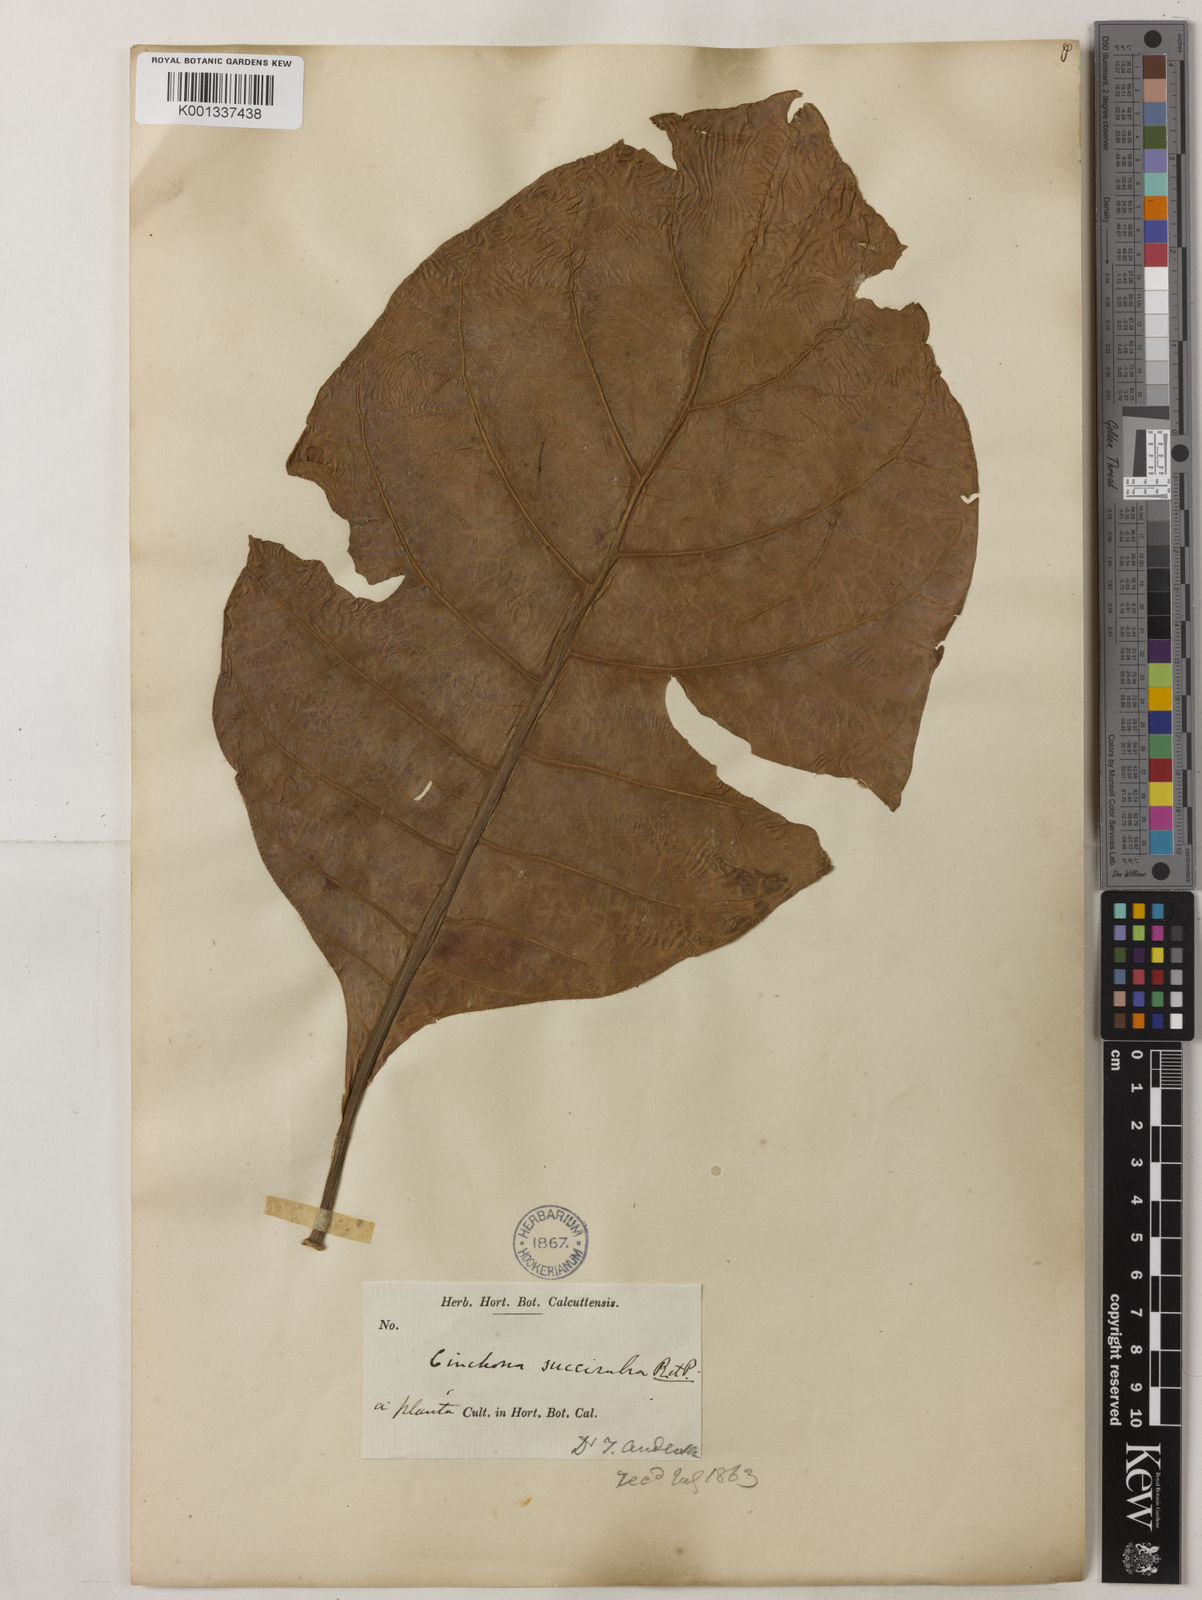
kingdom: Plantae
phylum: Tracheophyta
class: Magnoliopsida
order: Gentianales
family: Rubiaceae
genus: Cinchona
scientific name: Cinchona pubescens
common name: Quinine
